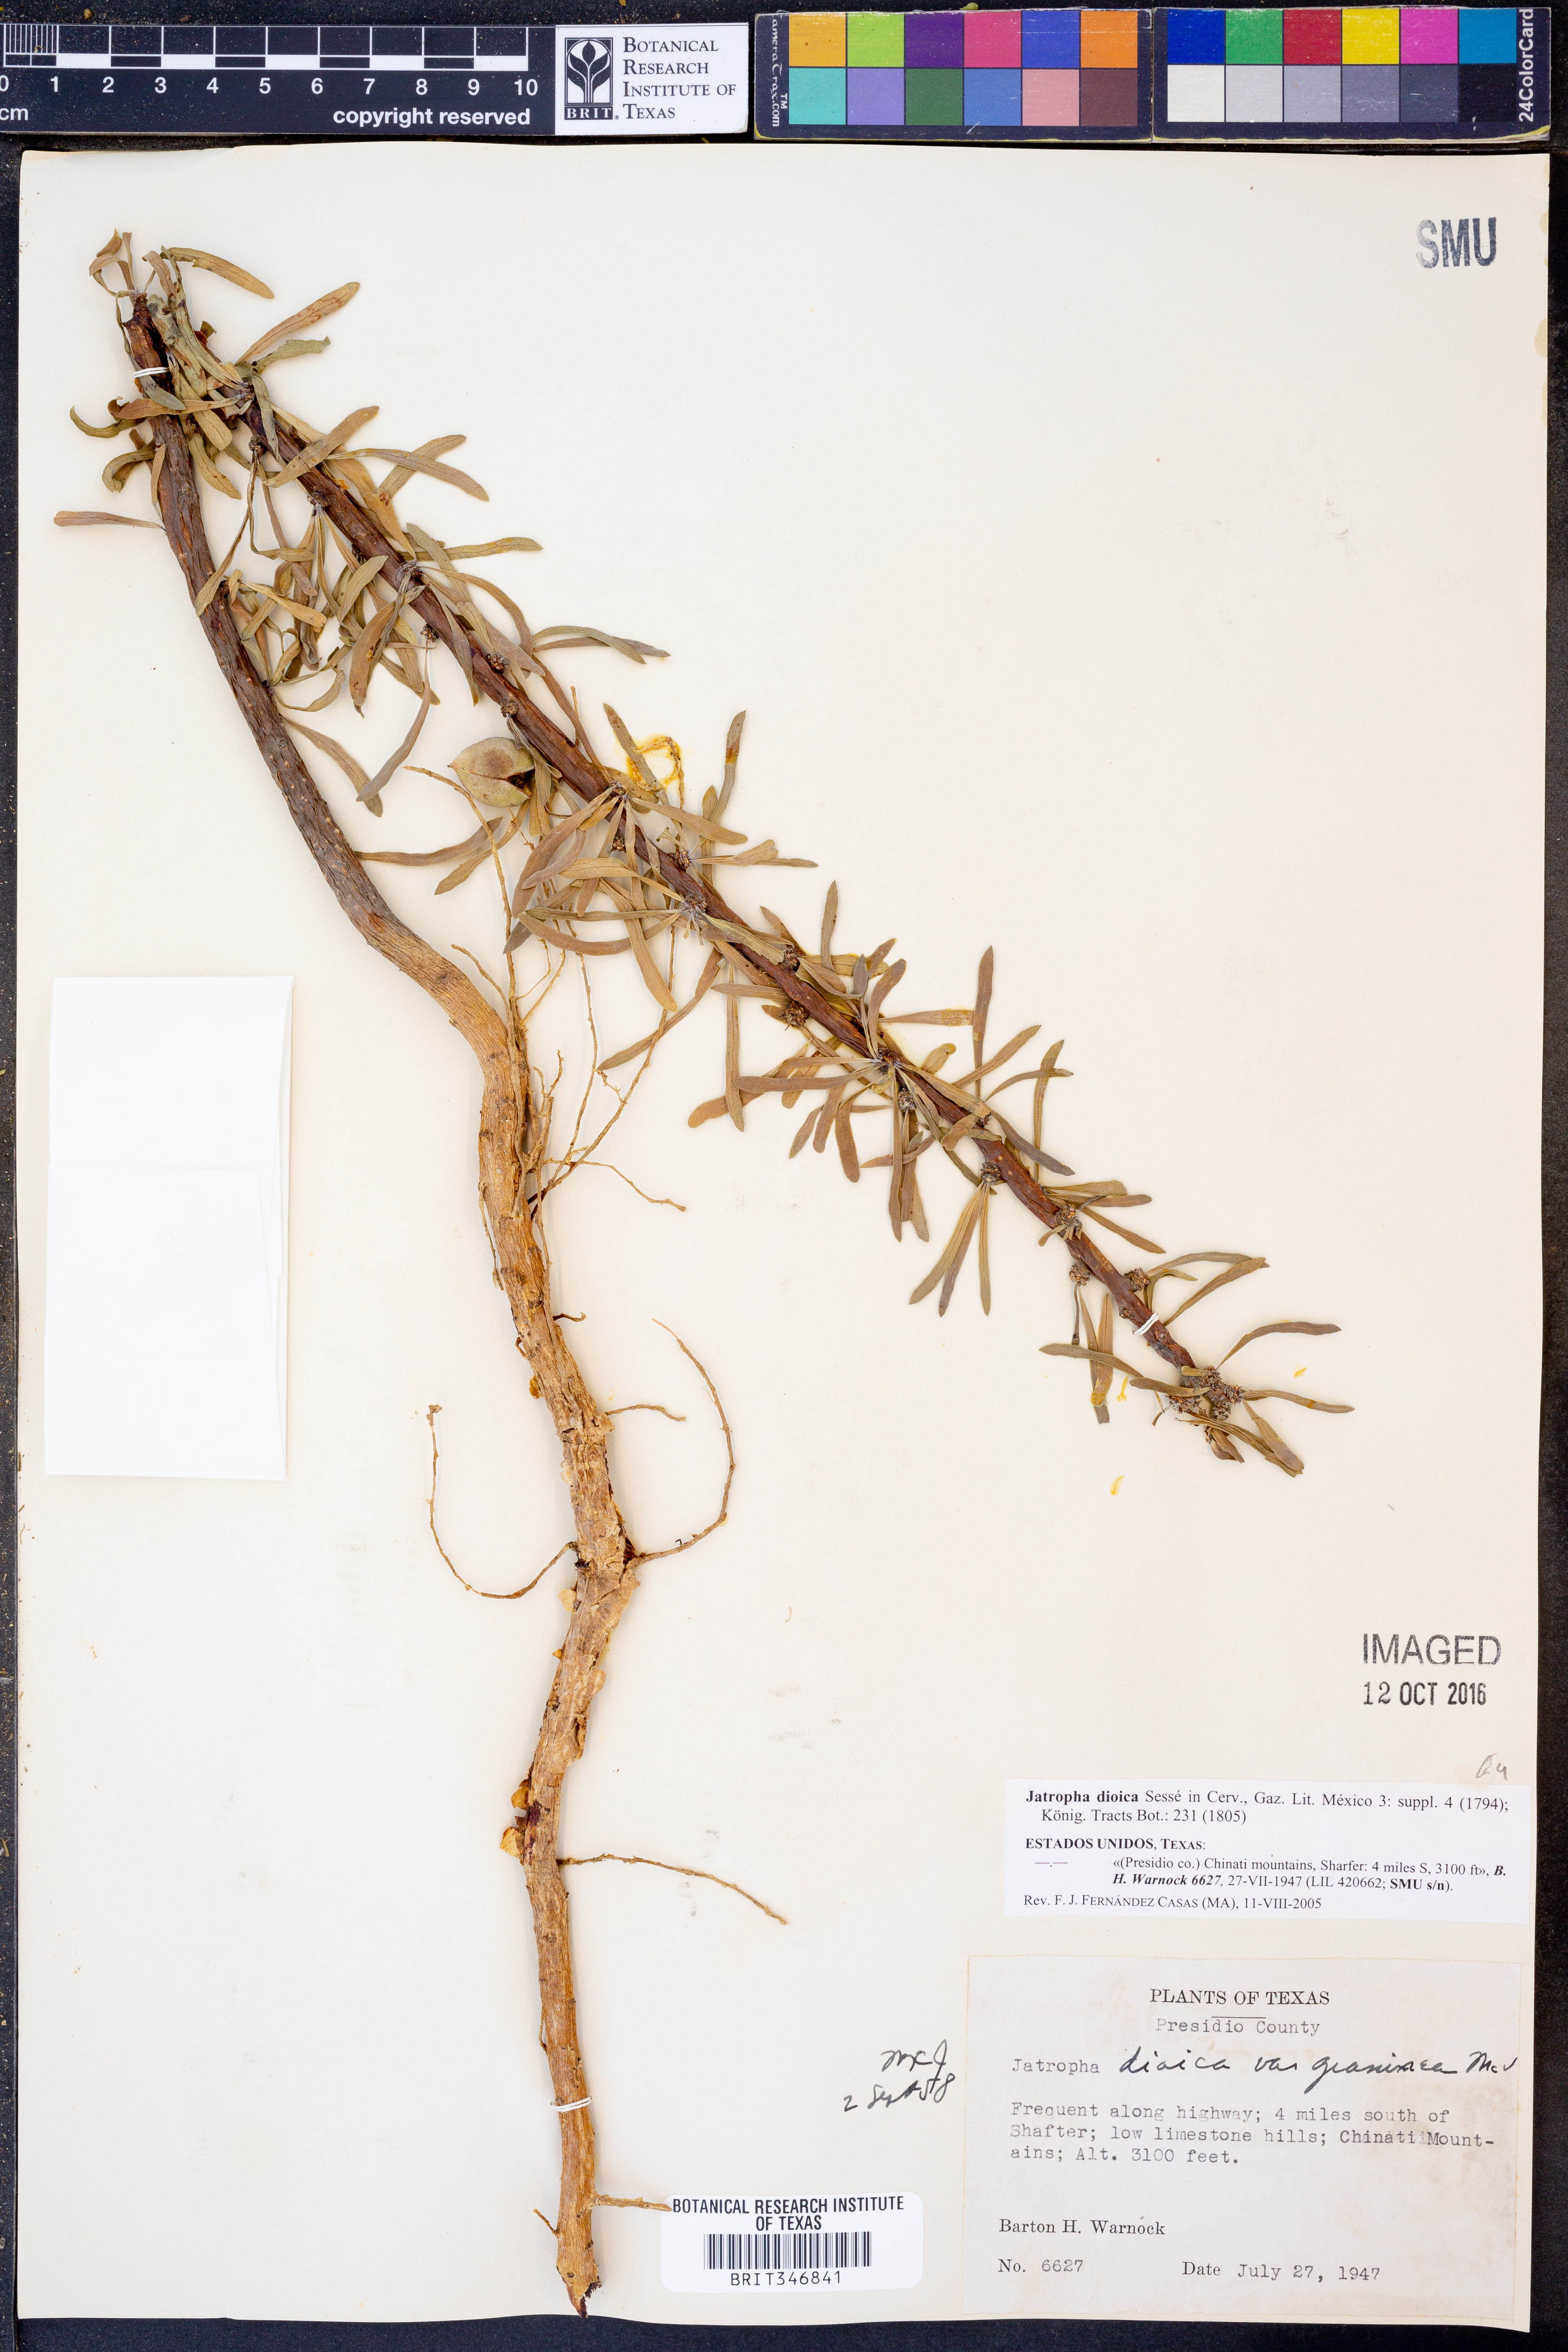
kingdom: Plantae
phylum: Tracheophyta
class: Magnoliopsida
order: Malpighiales
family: Euphorbiaceae
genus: Jatropha
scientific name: Jatropha dioica
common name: Leatherstem
